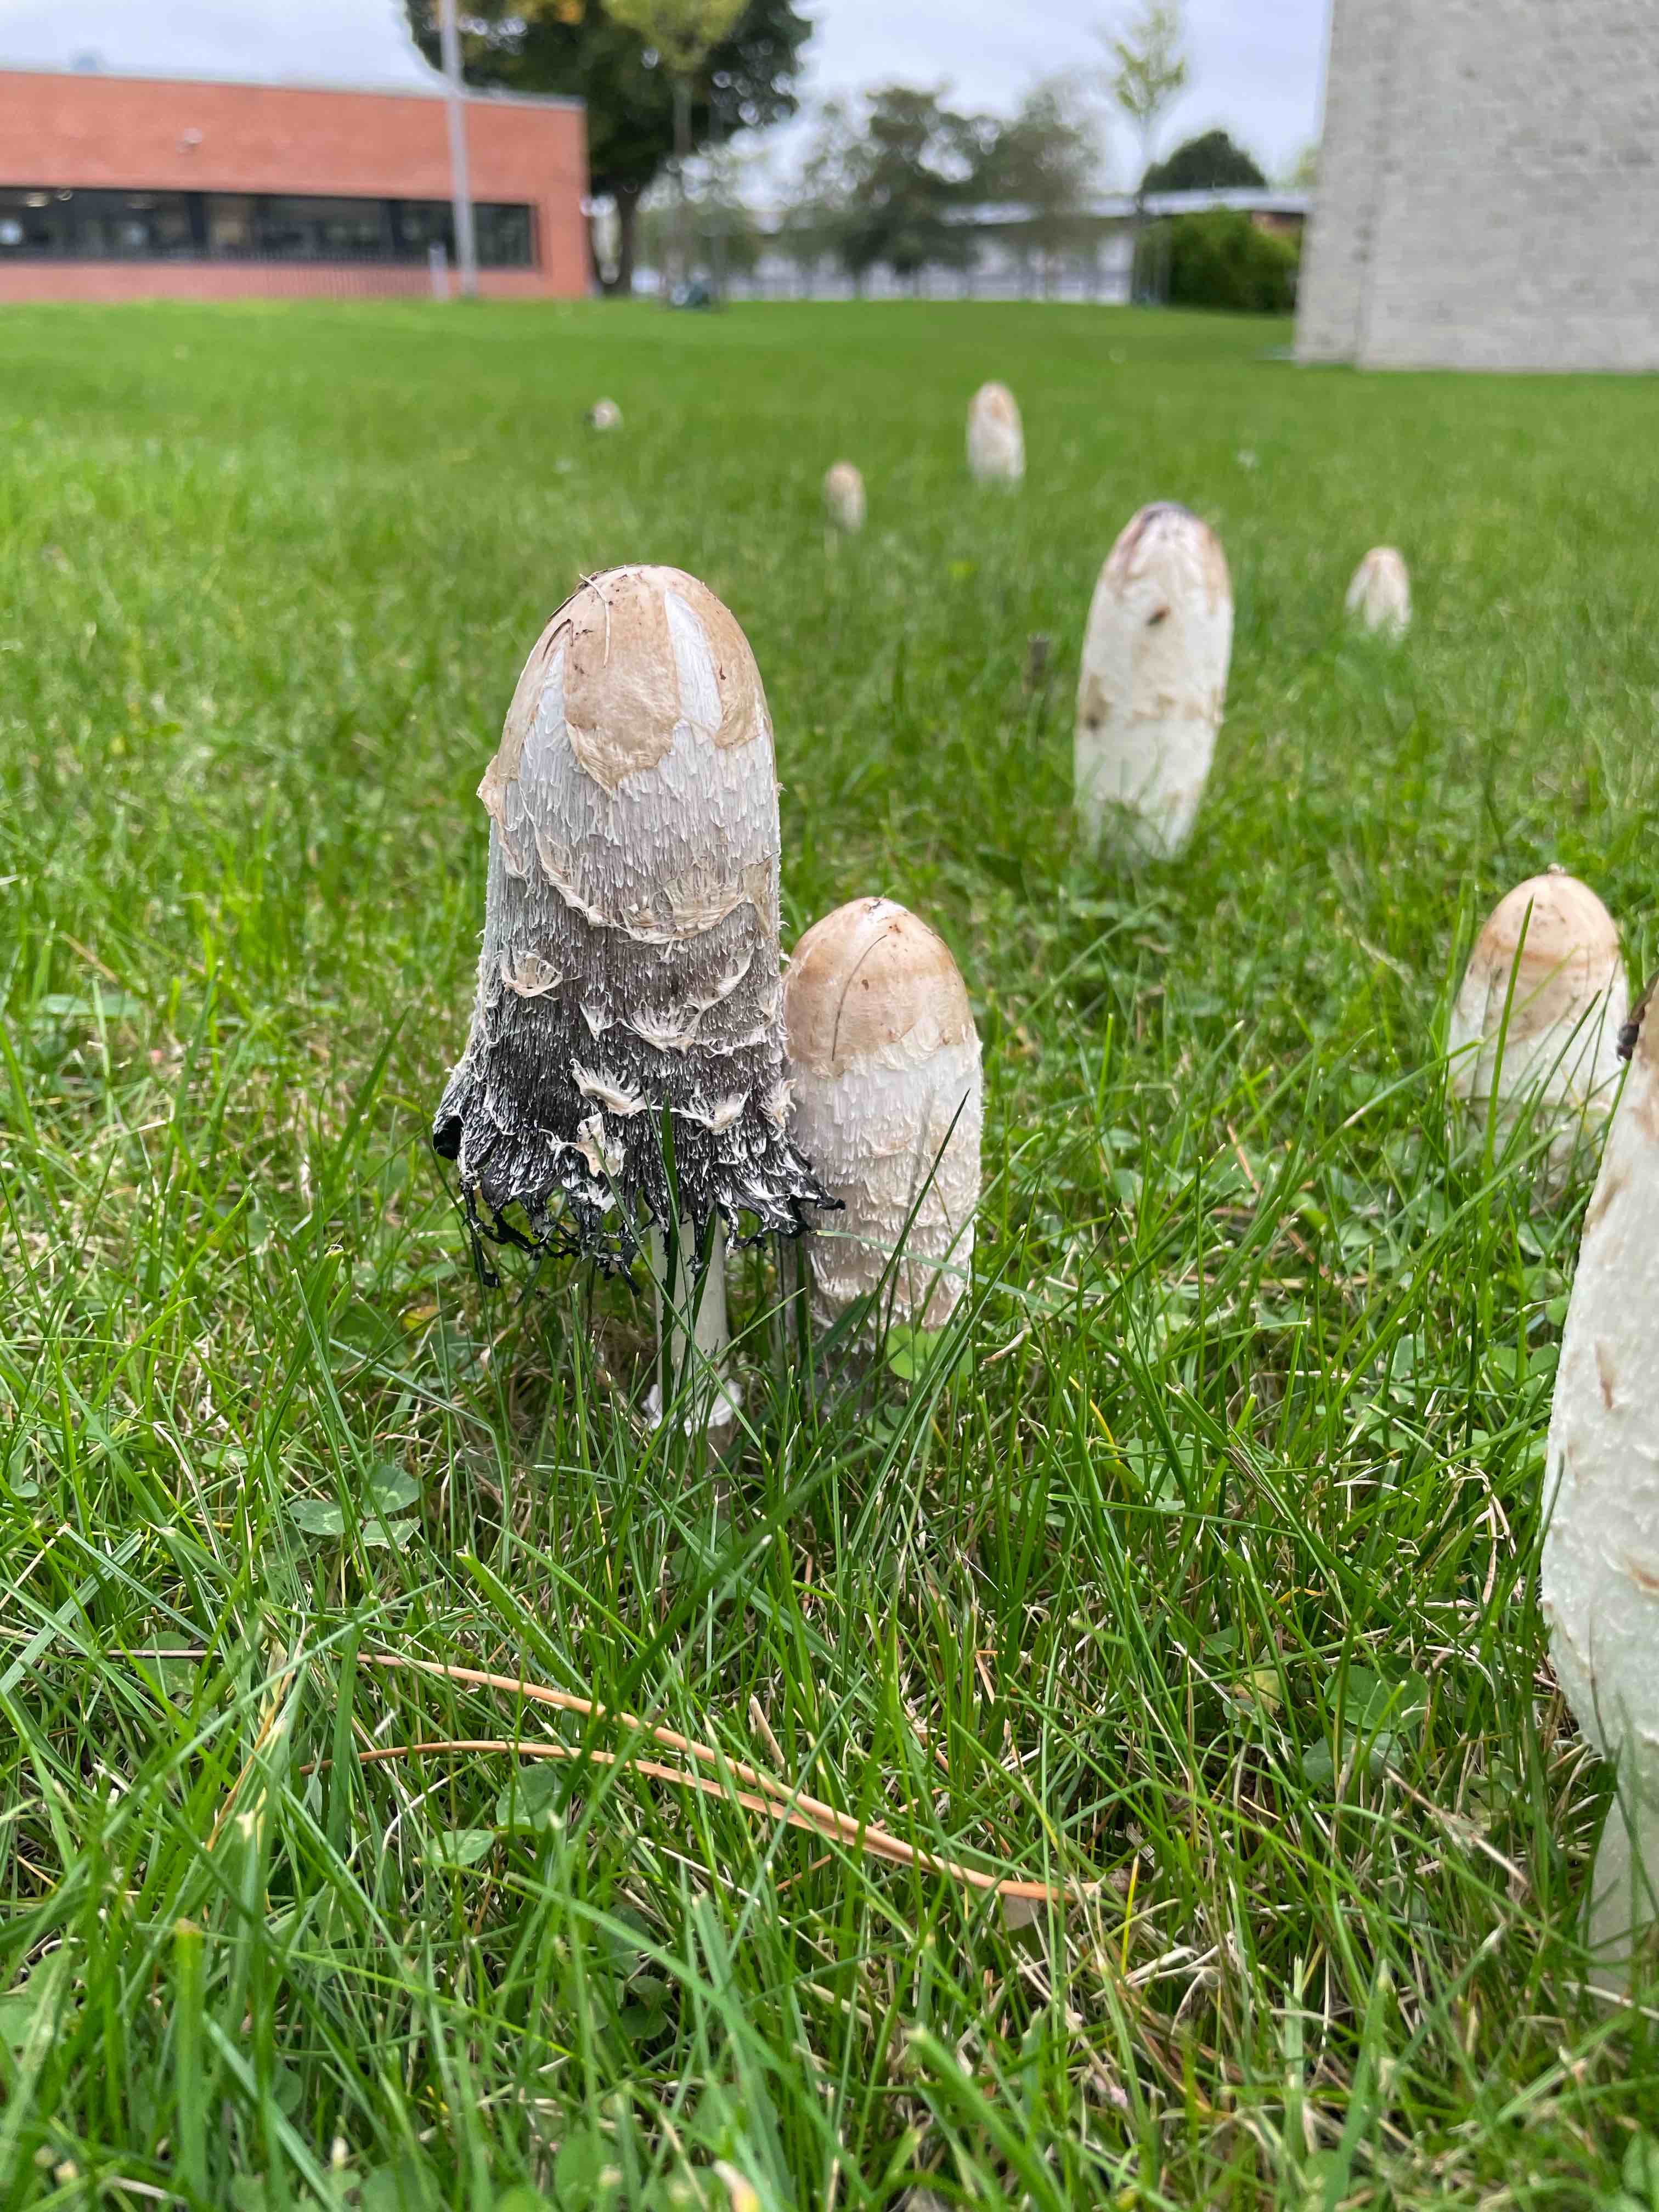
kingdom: Fungi
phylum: Basidiomycota
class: Agaricomycetes
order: Agaricales
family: Agaricaceae
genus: Coprinus
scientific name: Coprinus comatus
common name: stor parykhat
